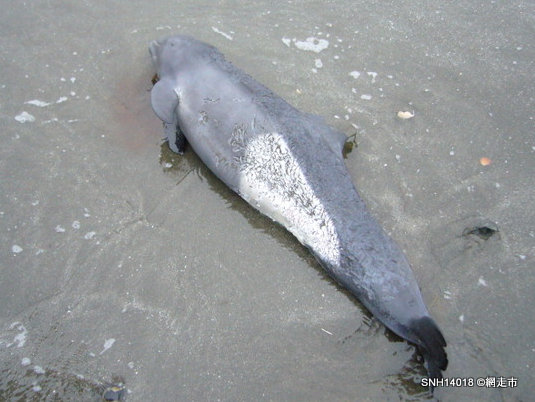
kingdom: Animalia
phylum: Chordata
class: Mammalia
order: Cetacea
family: Phocoenidae
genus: Phocoenoides
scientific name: Phocoenoides dalli
